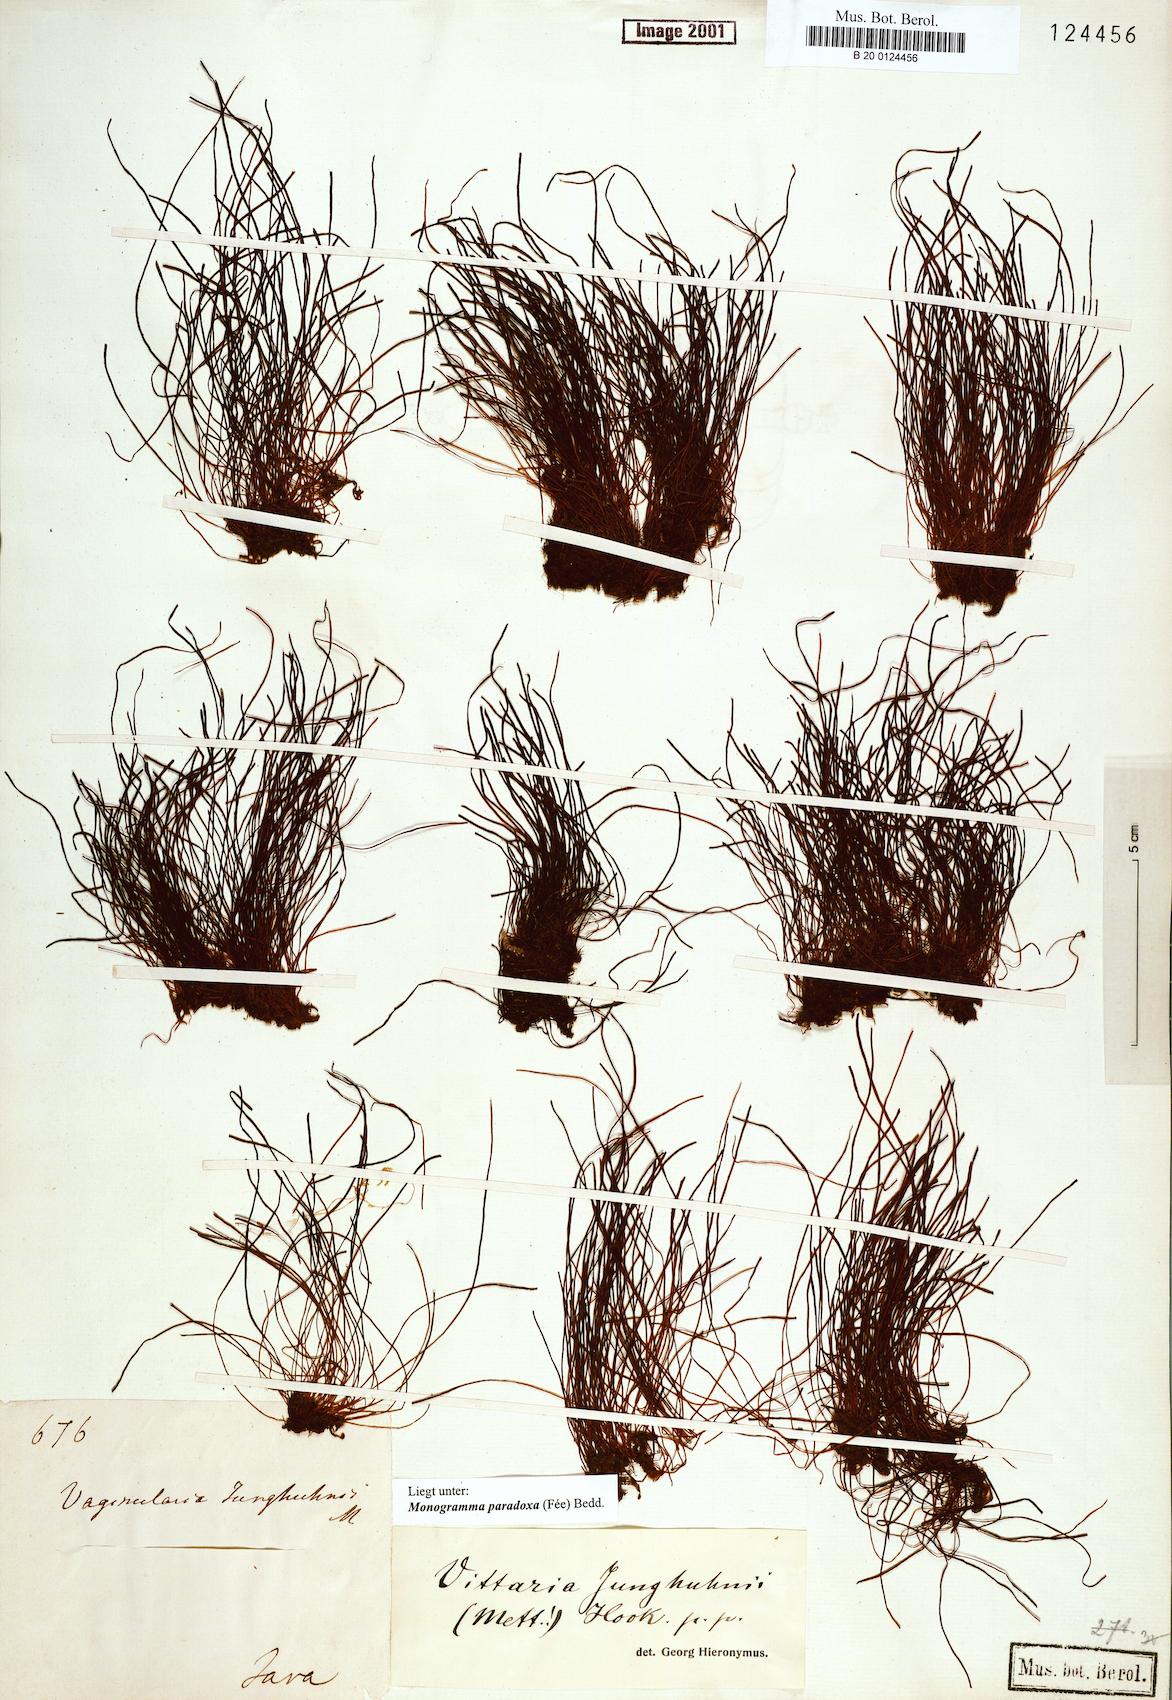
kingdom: Plantae
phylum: Tracheophyta
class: Polypodiopsida
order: Polypodiales
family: Pteridaceae
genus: Vaginularia
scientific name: Vaginularia paradoxa
